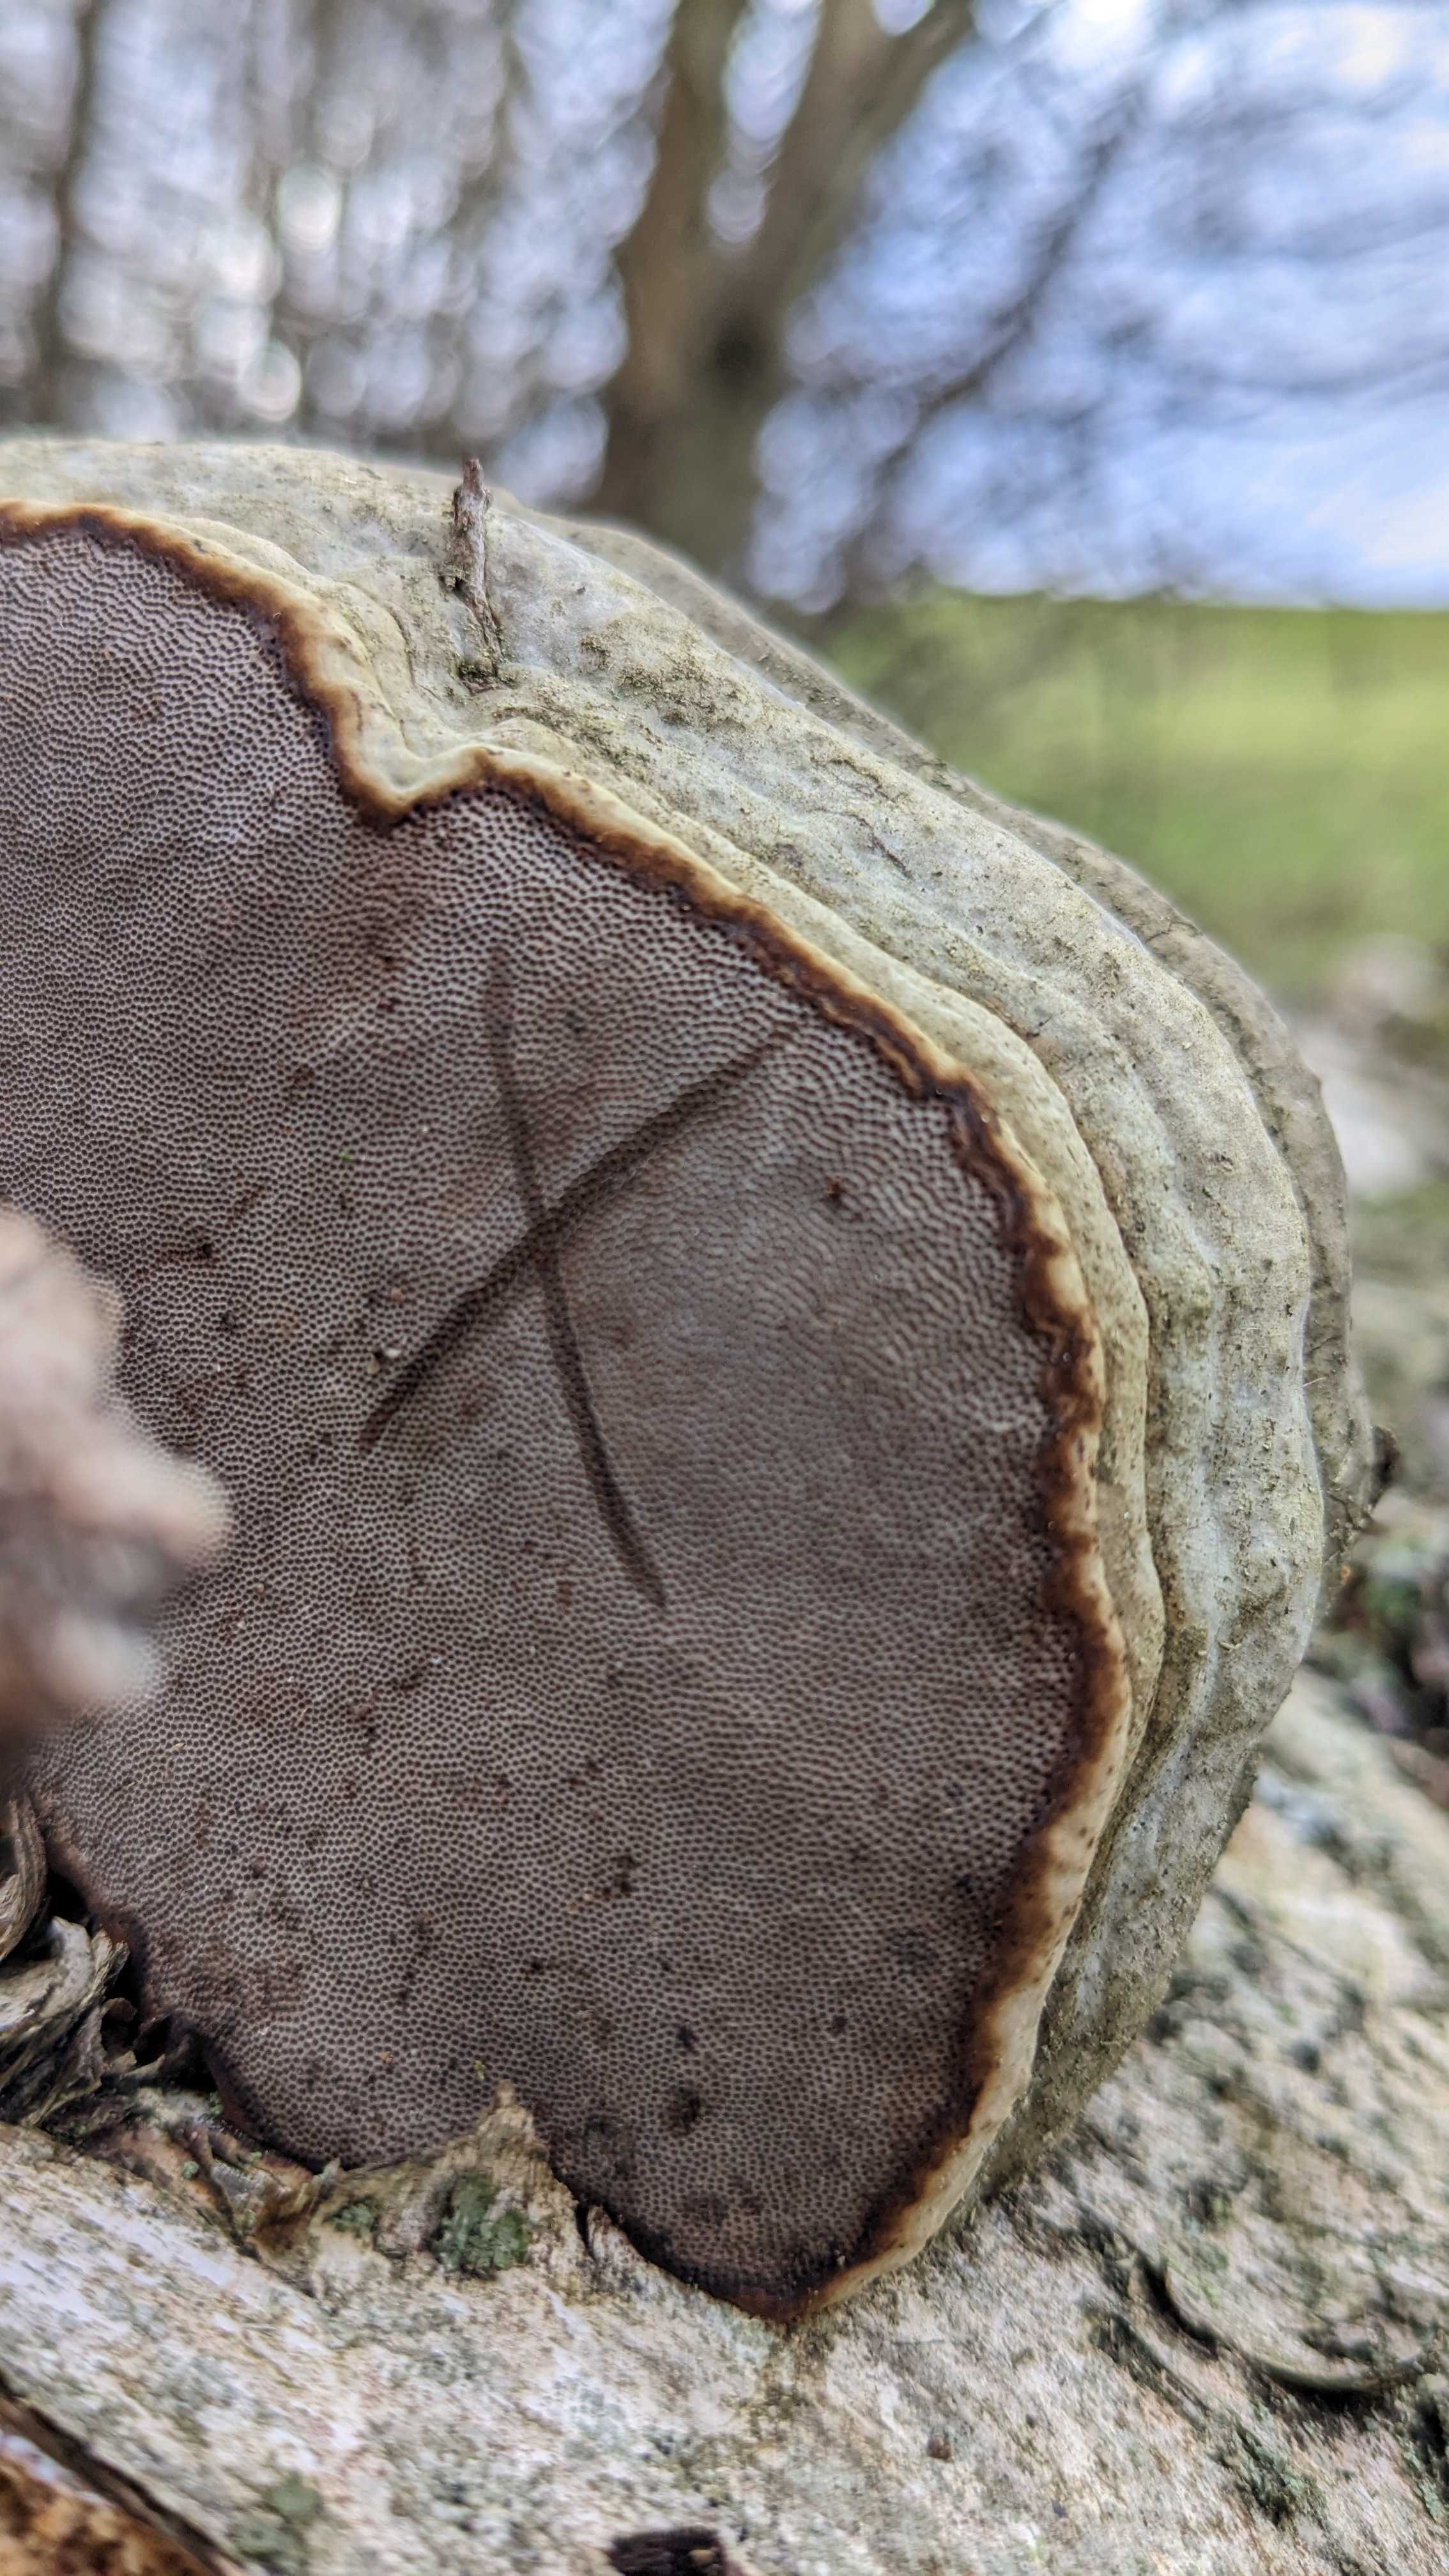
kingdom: Fungi
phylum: Basidiomycota
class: Agaricomycetes
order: Polyporales
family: Polyporaceae
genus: Fomes
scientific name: Fomes fomentarius
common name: tøndersvamp
